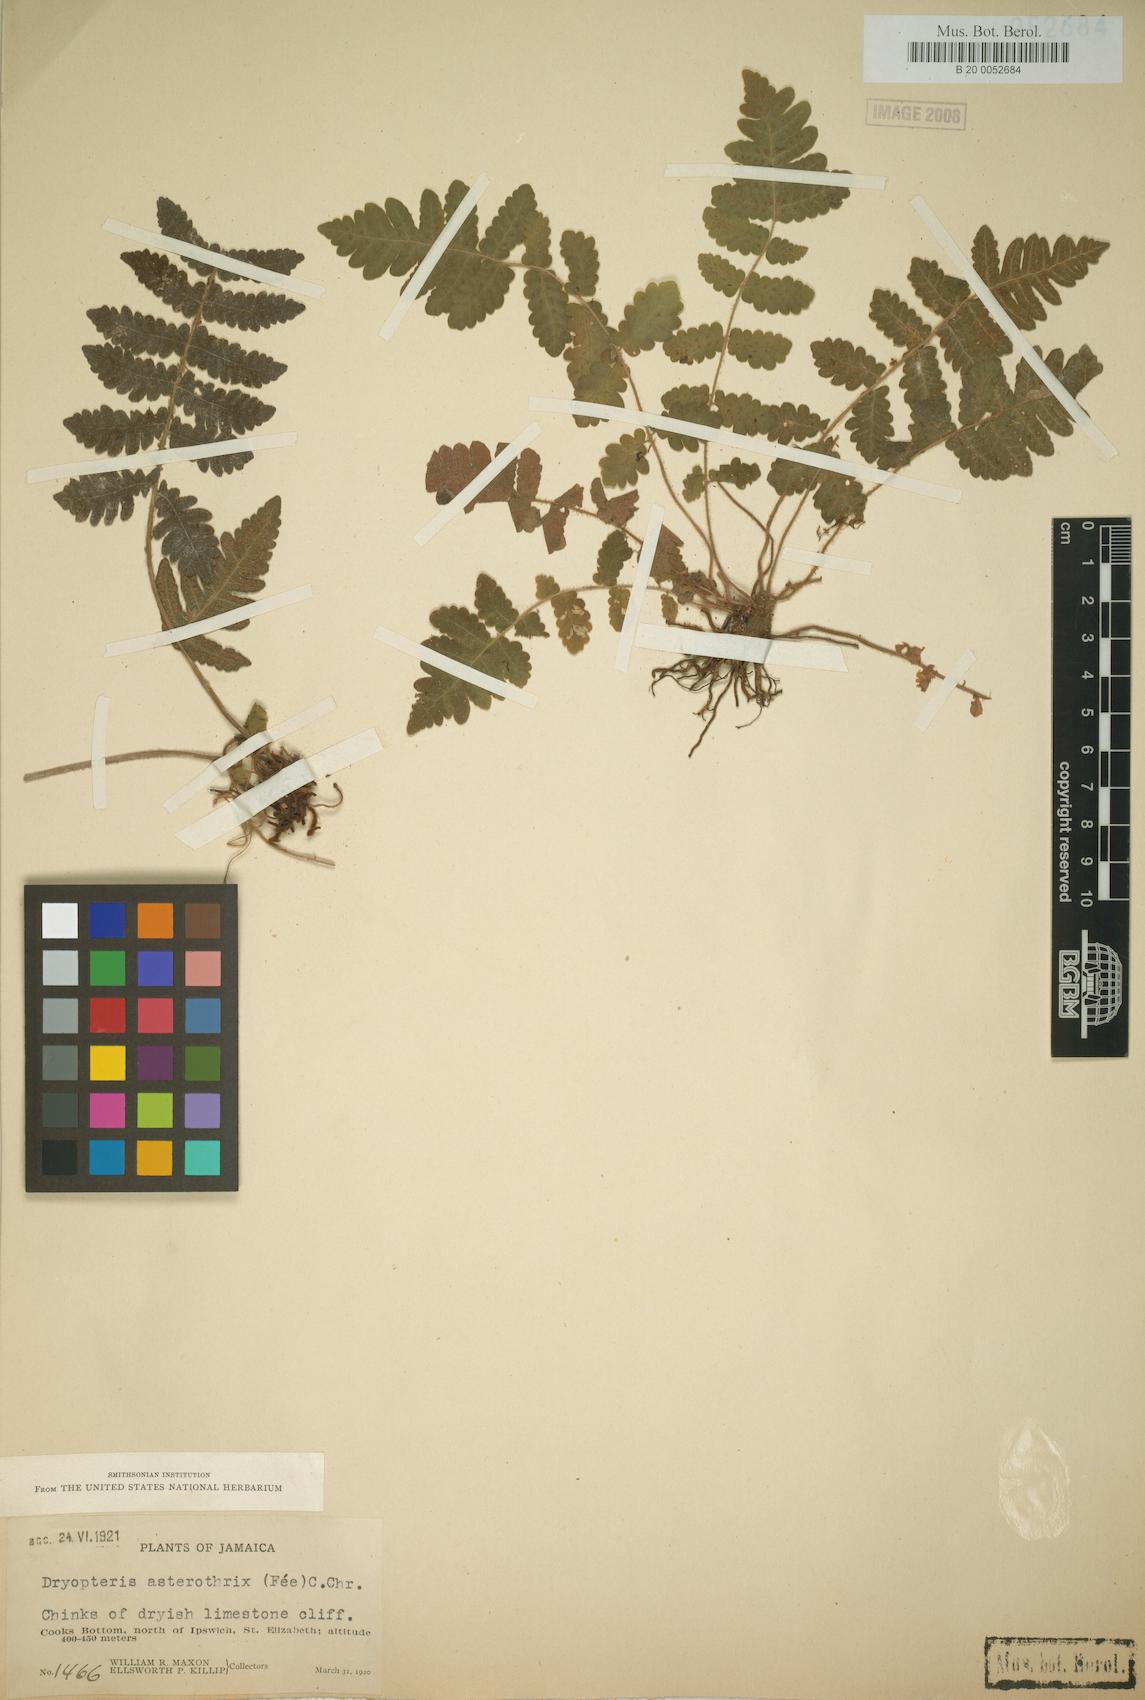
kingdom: Plantae
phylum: Tracheophyta
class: Polypodiopsida
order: Polypodiales
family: Thelypteridaceae
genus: Goniopteris
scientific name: Goniopteris bibrachiata
